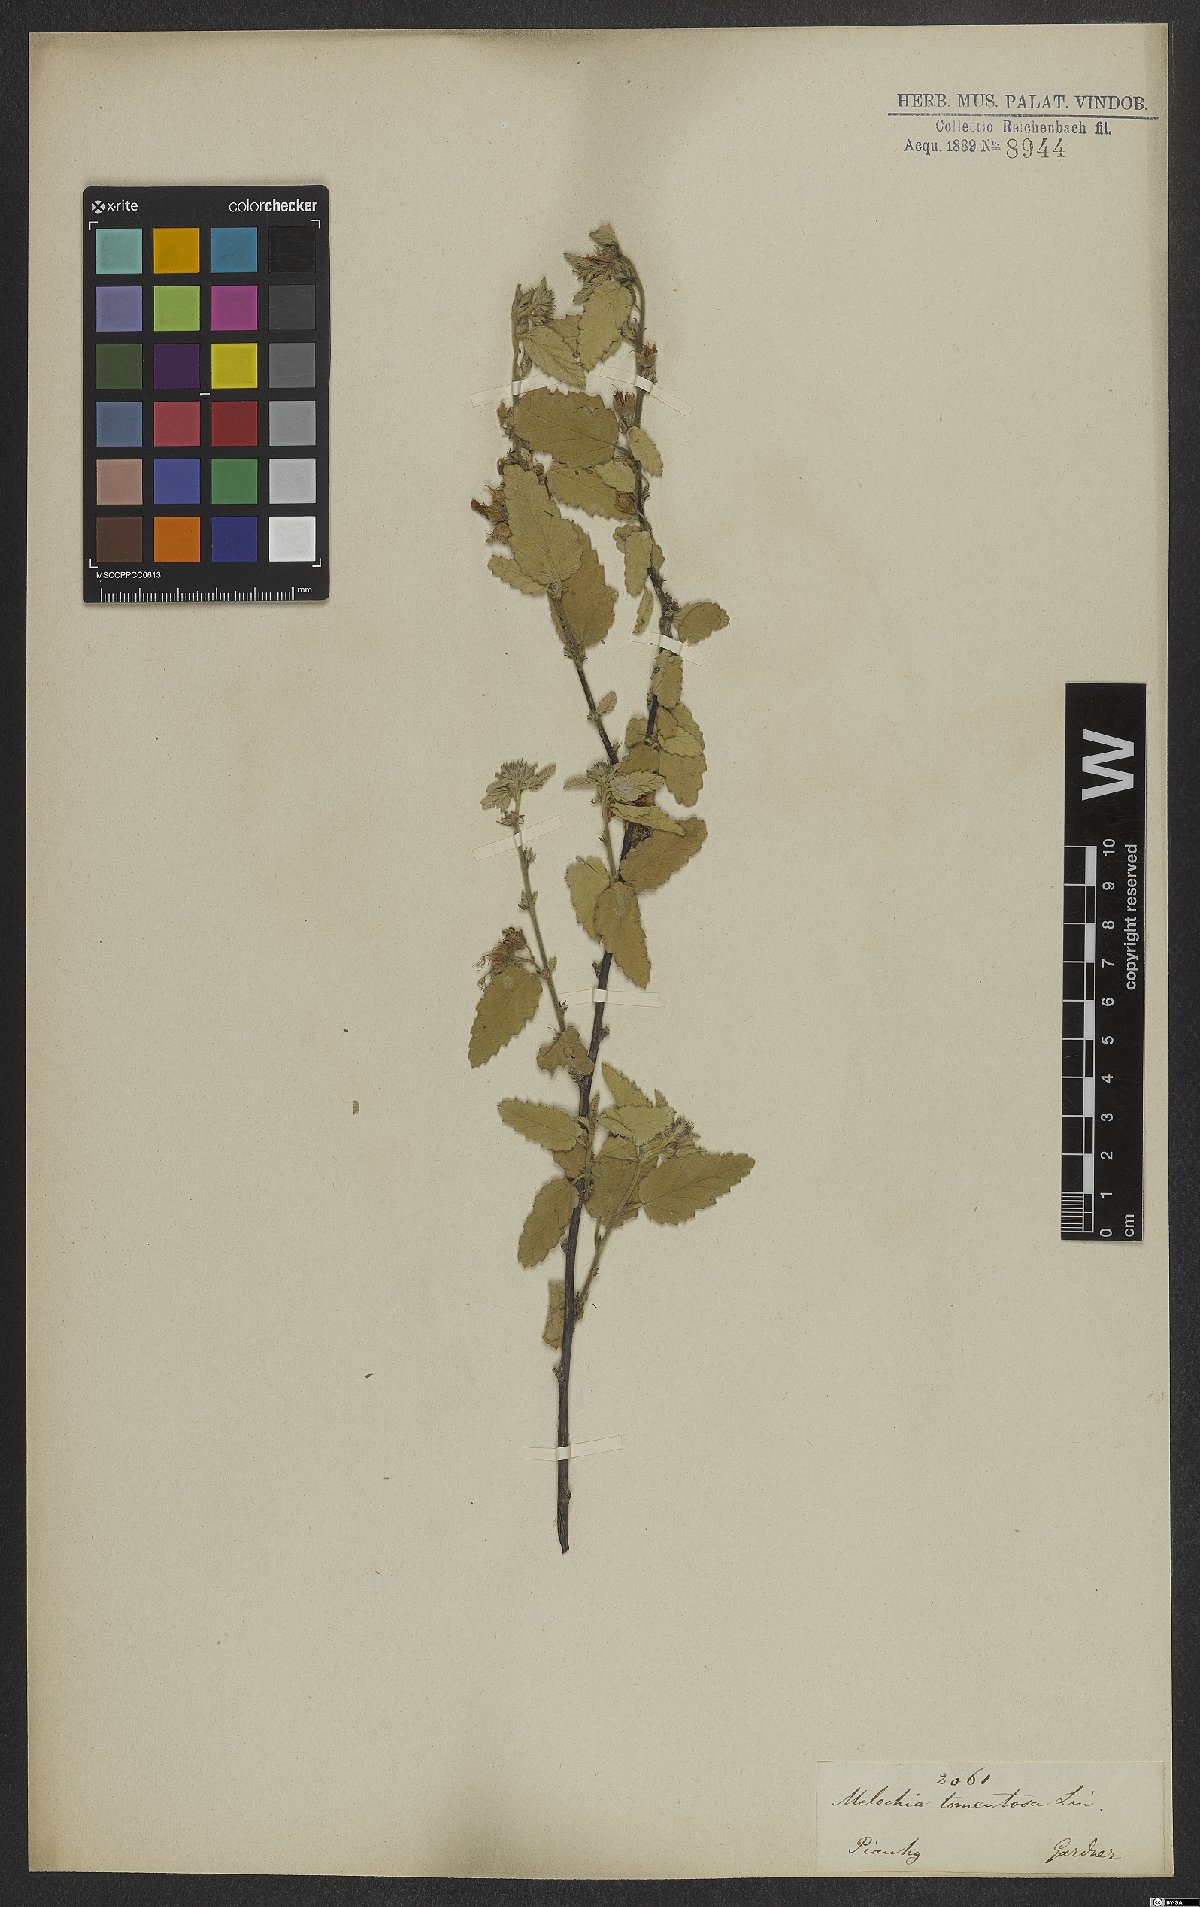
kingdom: Plantae
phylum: Tracheophyta
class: Magnoliopsida
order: Malvales
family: Malvaceae
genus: Melochia
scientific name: Melochia tomentosa
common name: Black torch
